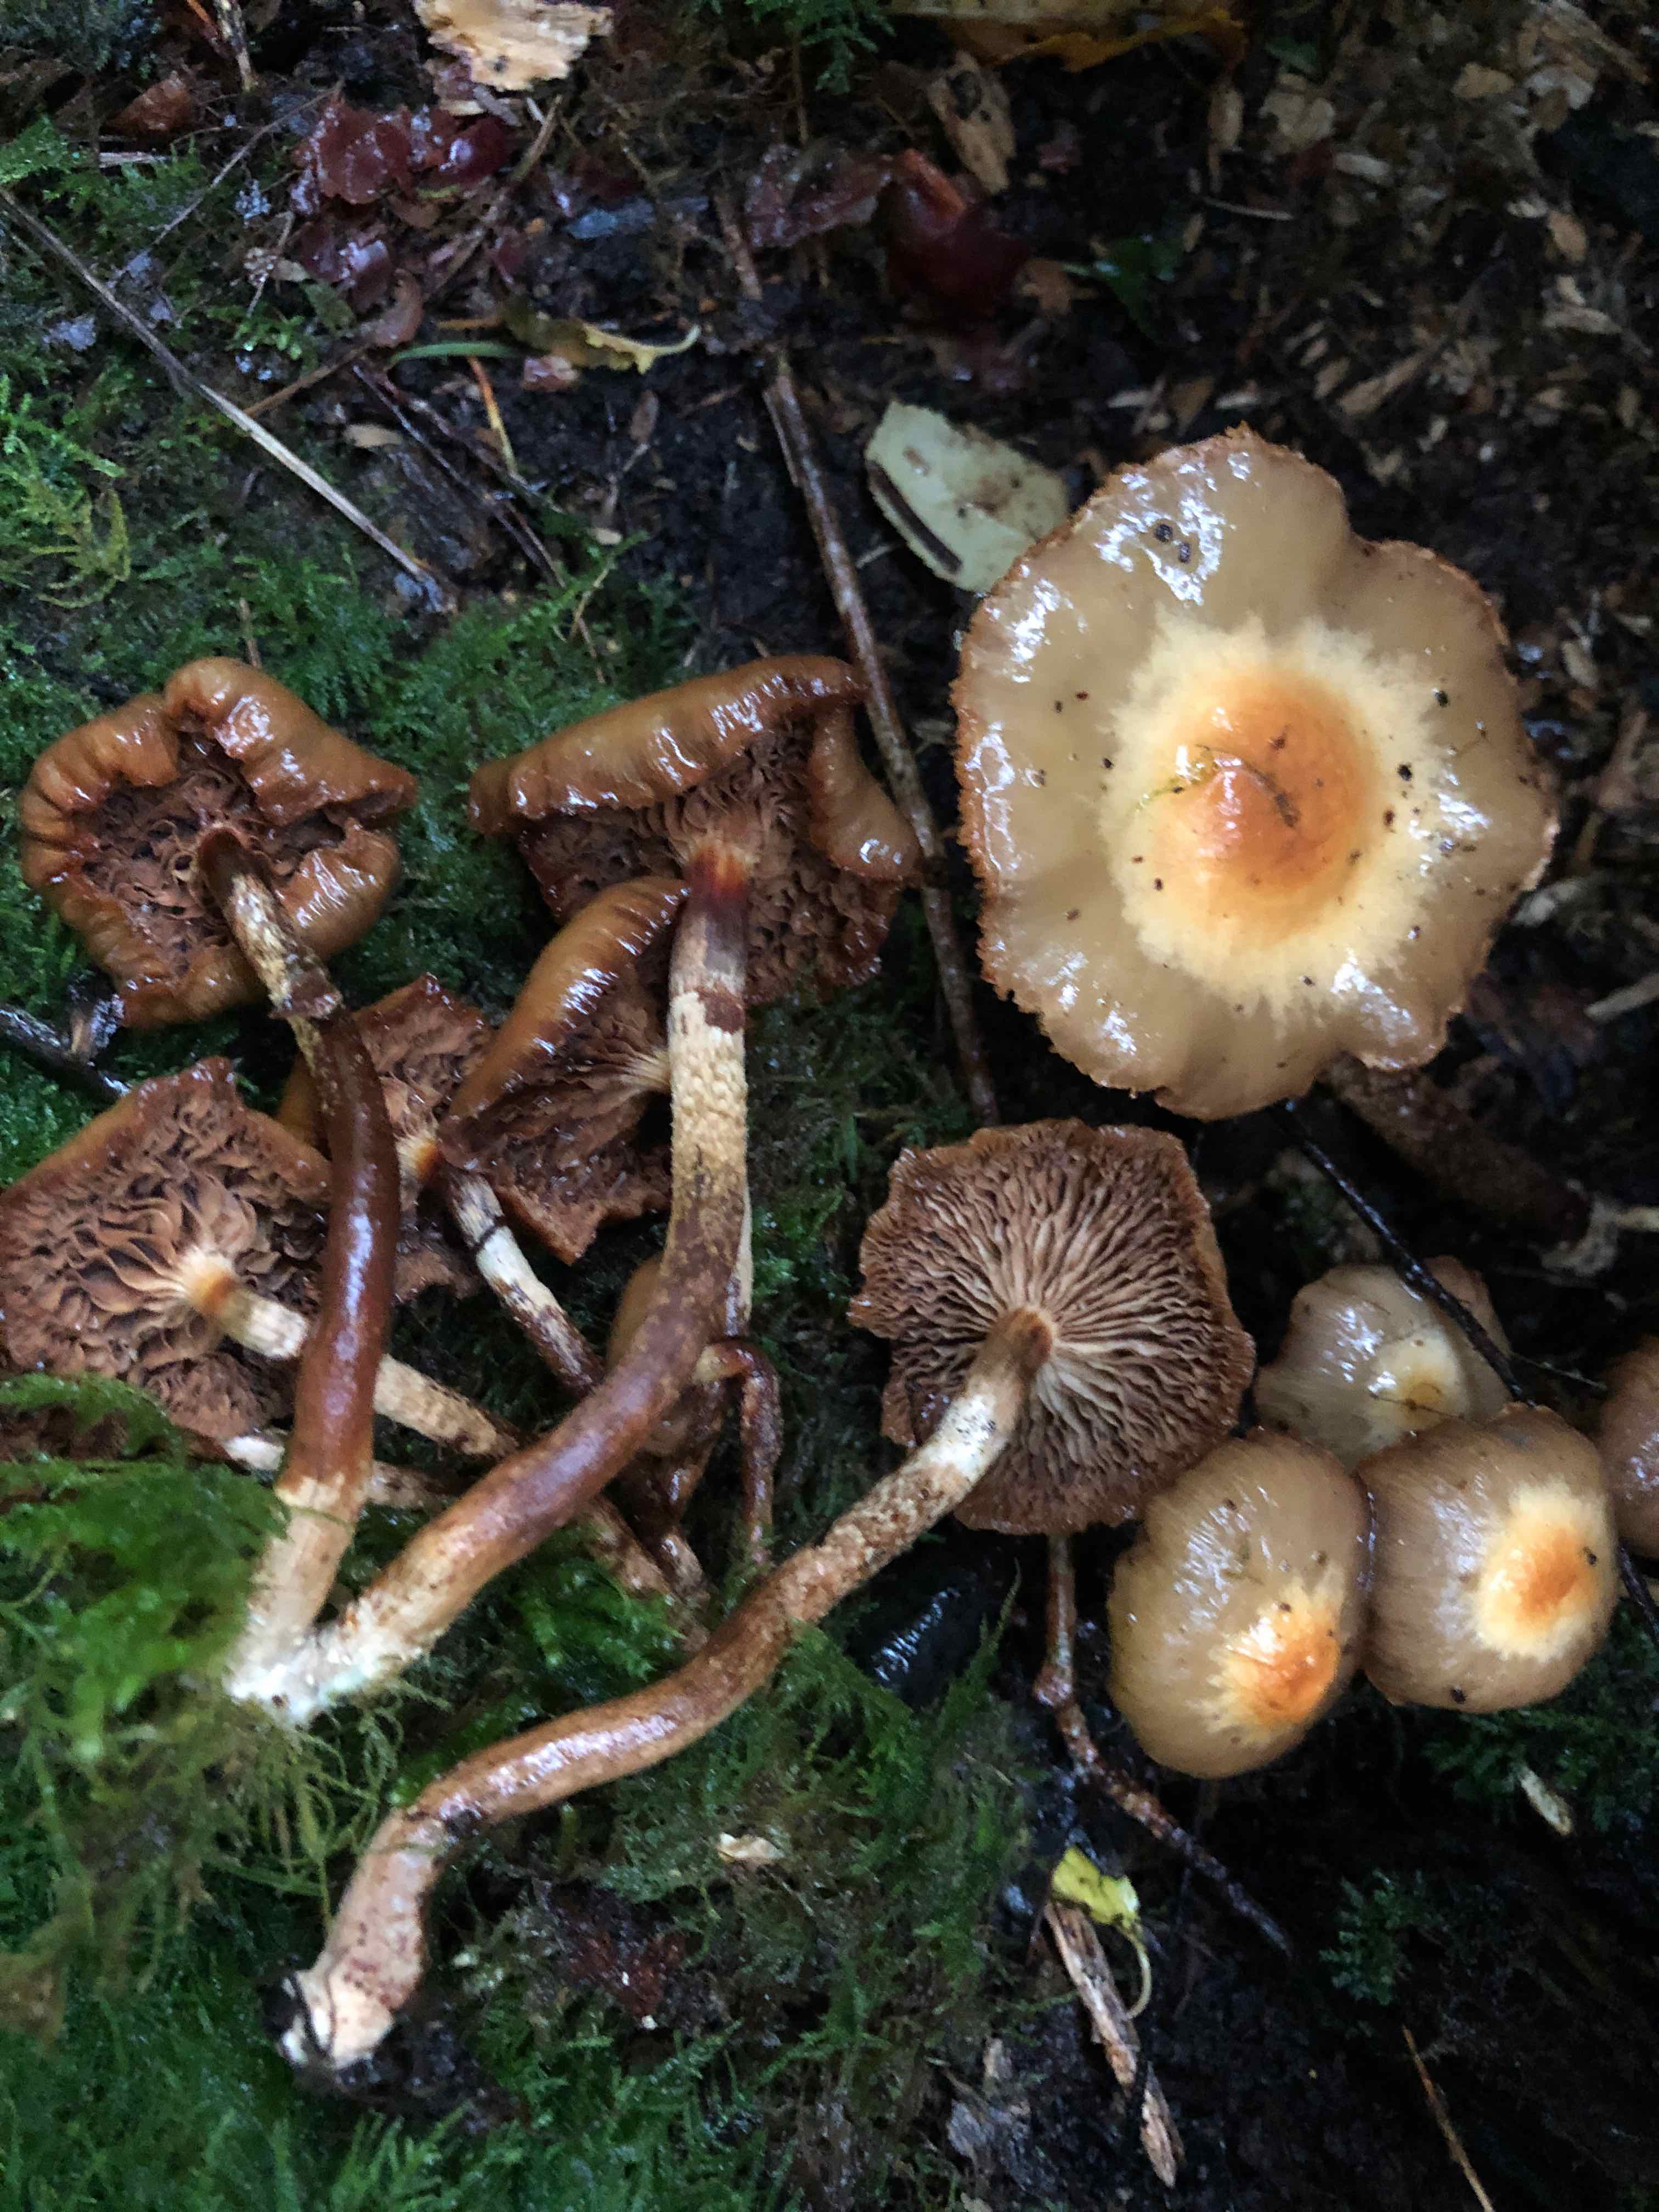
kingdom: Fungi
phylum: Basidiomycota
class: Agaricomycetes
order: Agaricales
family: Strophariaceae
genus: Kuehneromyces
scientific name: Kuehneromyces mutabilis
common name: foranderlig skælhat
